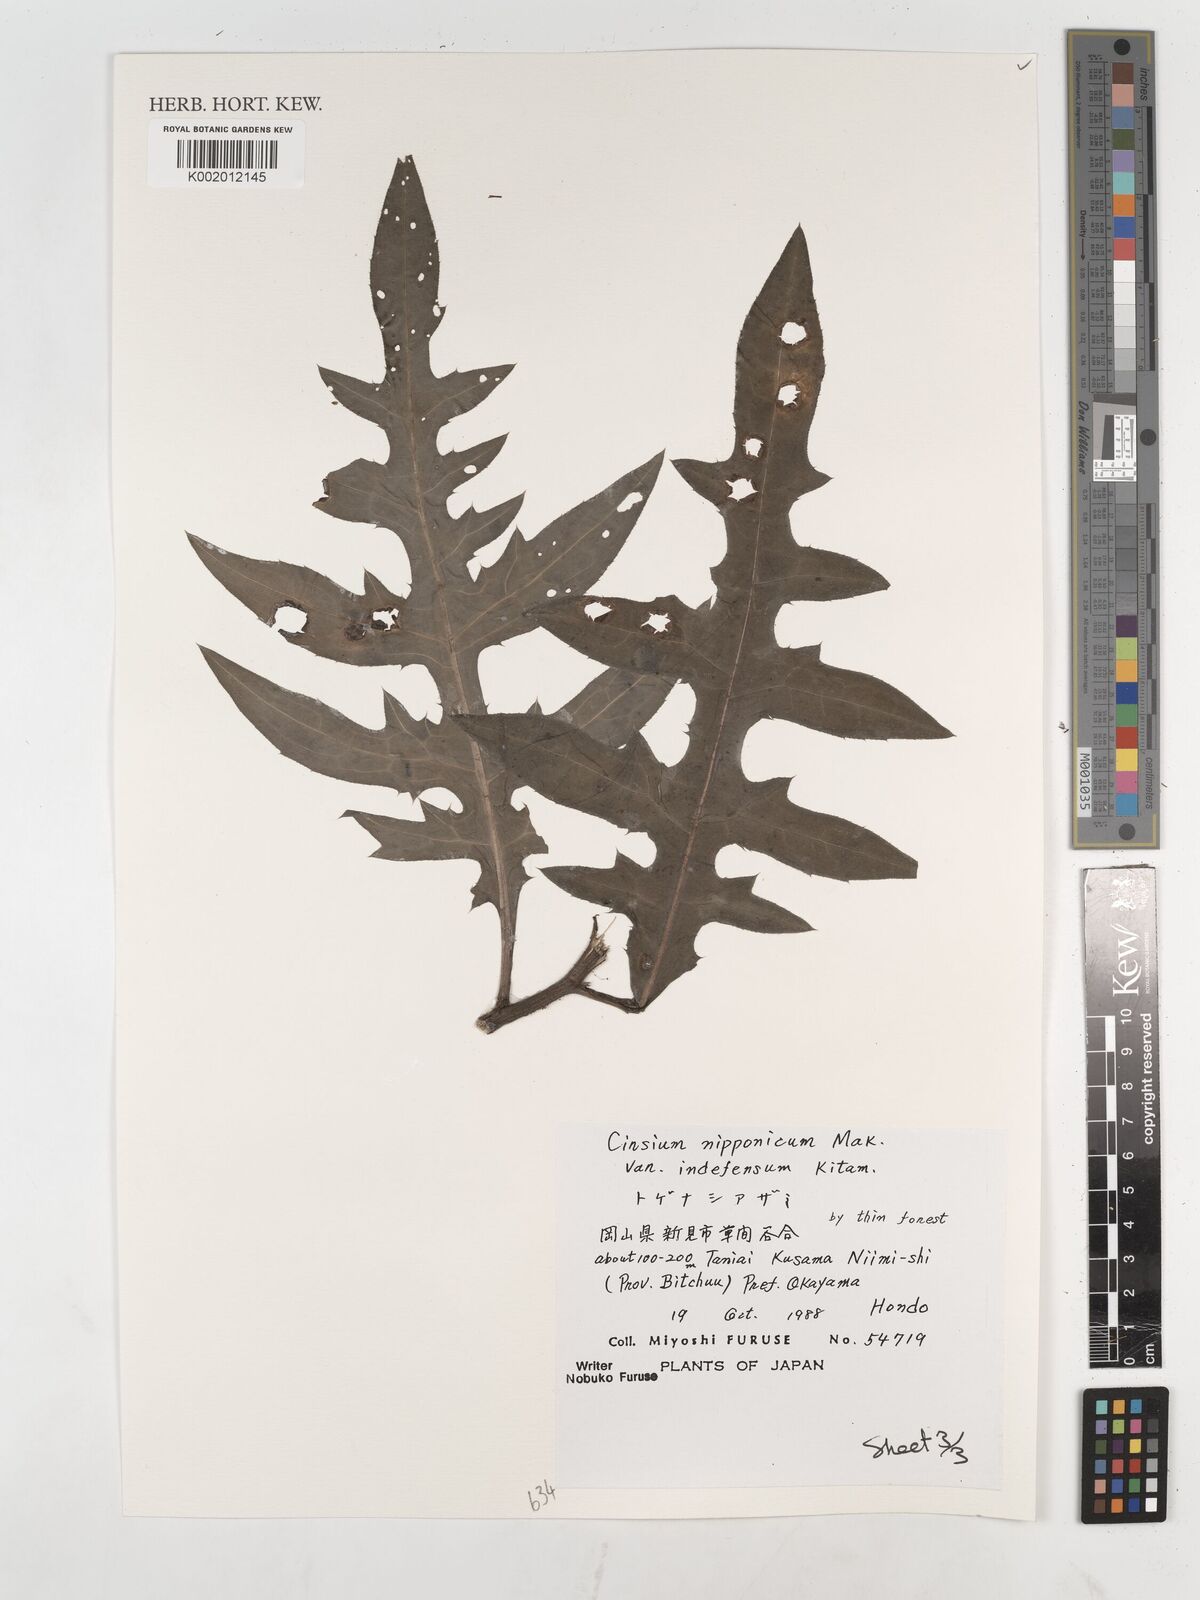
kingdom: Plantae
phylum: Tracheophyta
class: Magnoliopsida
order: Asterales
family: Asteraceae
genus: Cirsium
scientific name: Cirsium nipponicum
